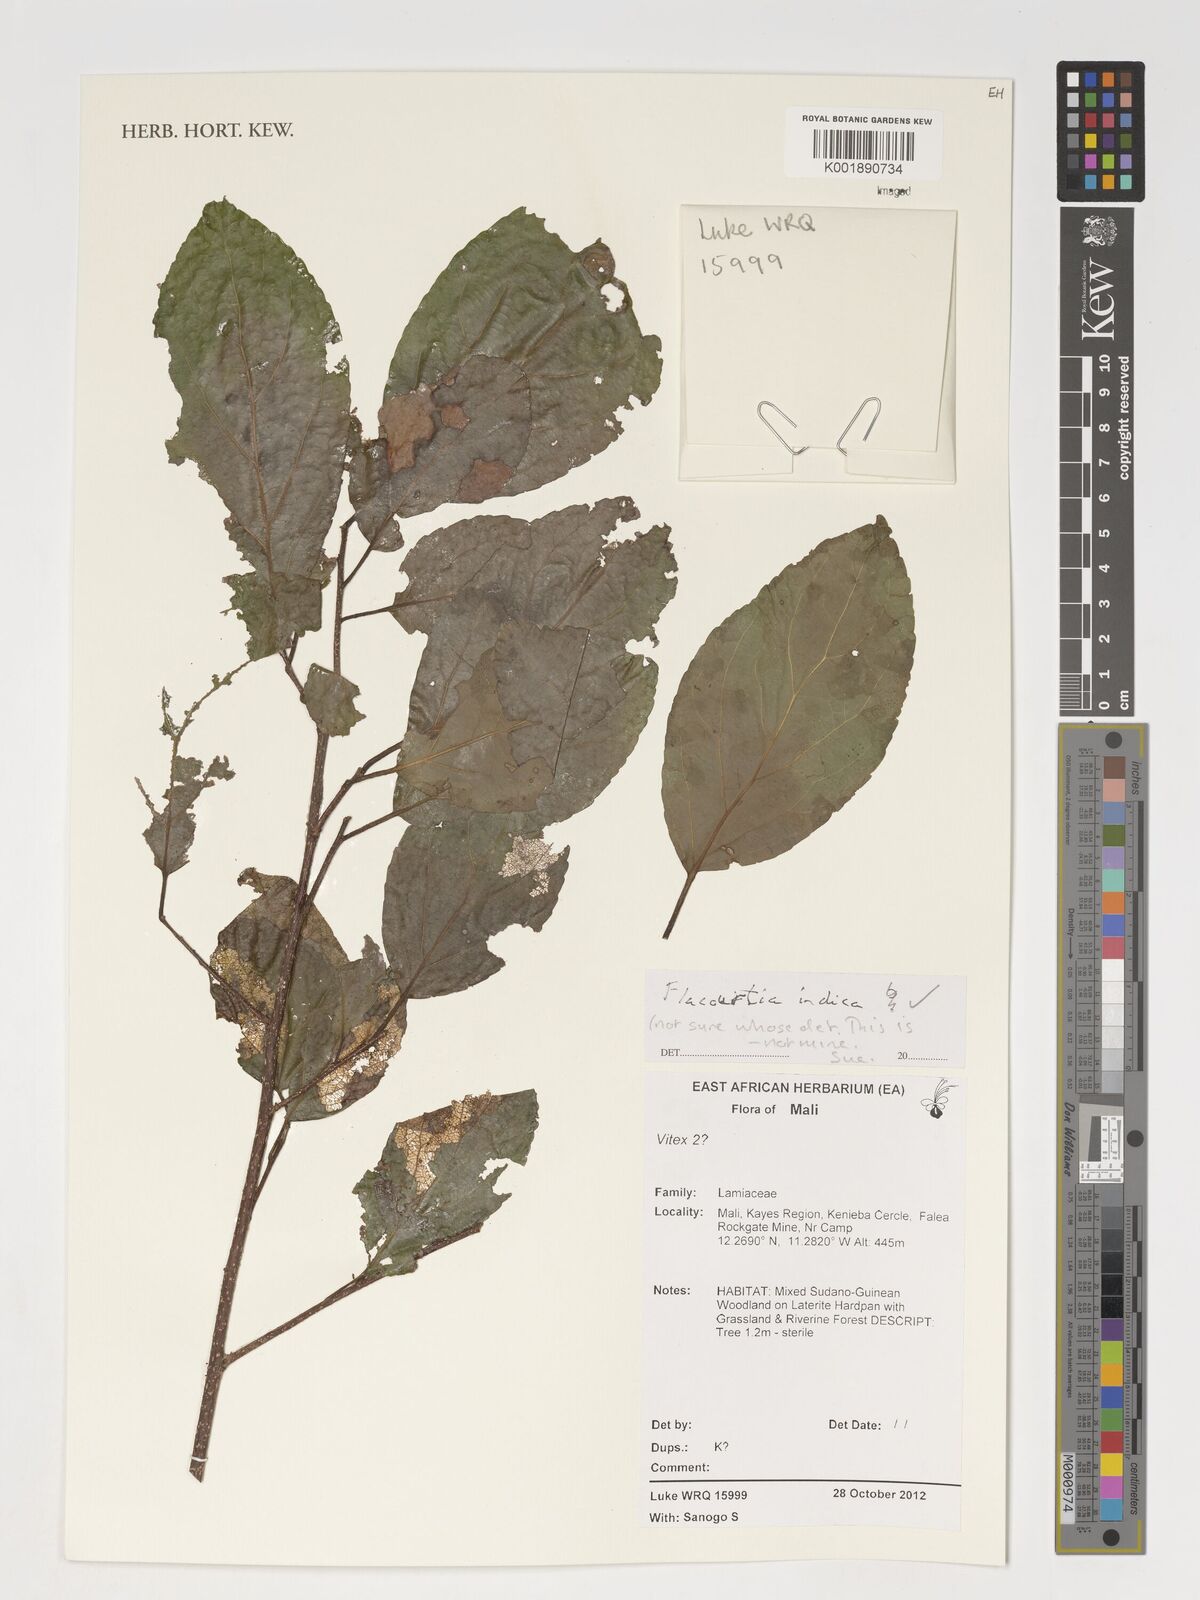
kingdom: Plantae
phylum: Tracheophyta
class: Magnoliopsida
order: Malpighiales
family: Salicaceae
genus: Flacourtia
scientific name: Flacourtia indica
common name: Governor's plum
